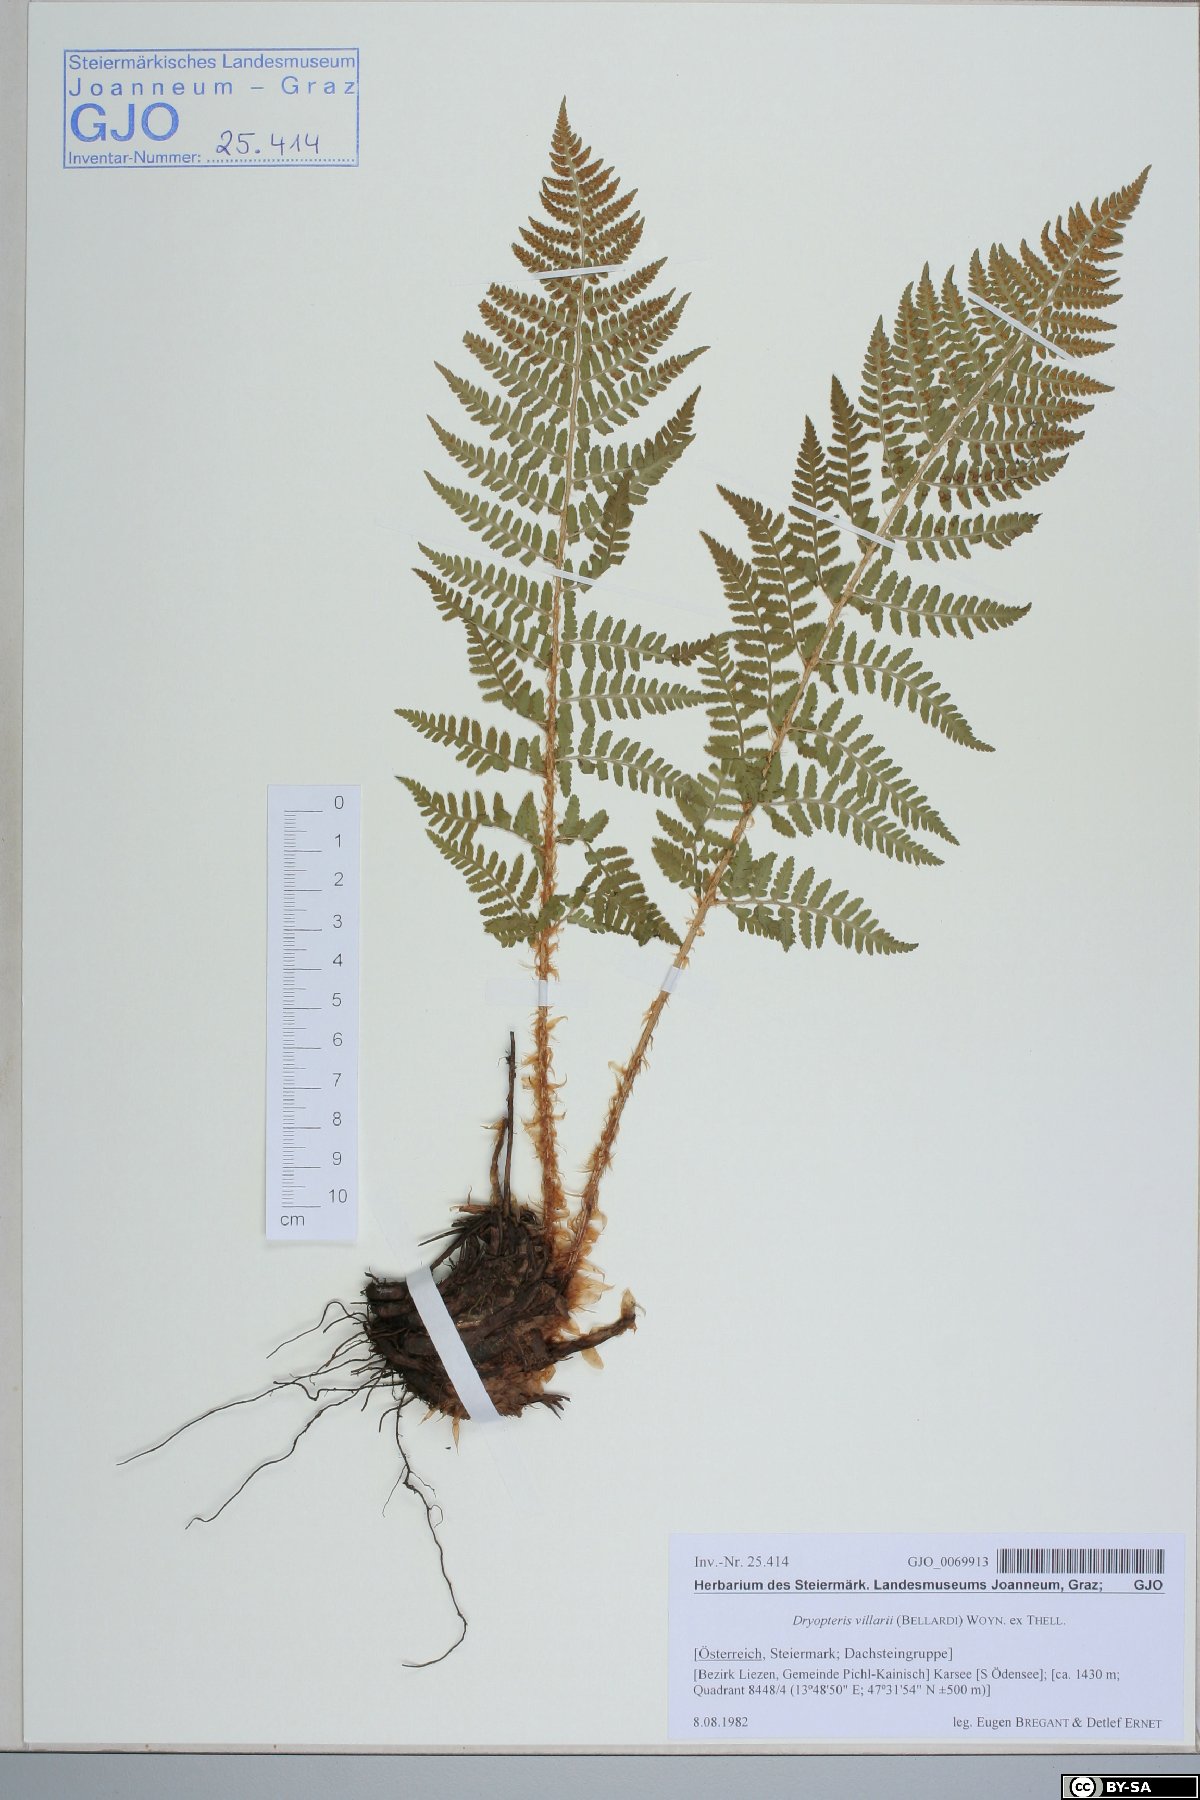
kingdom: Plantae
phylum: Tracheophyta
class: Polypodiopsida
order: Polypodiales
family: Dryopteridaceae
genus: Dryopteris
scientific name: Dryopteris villarii
